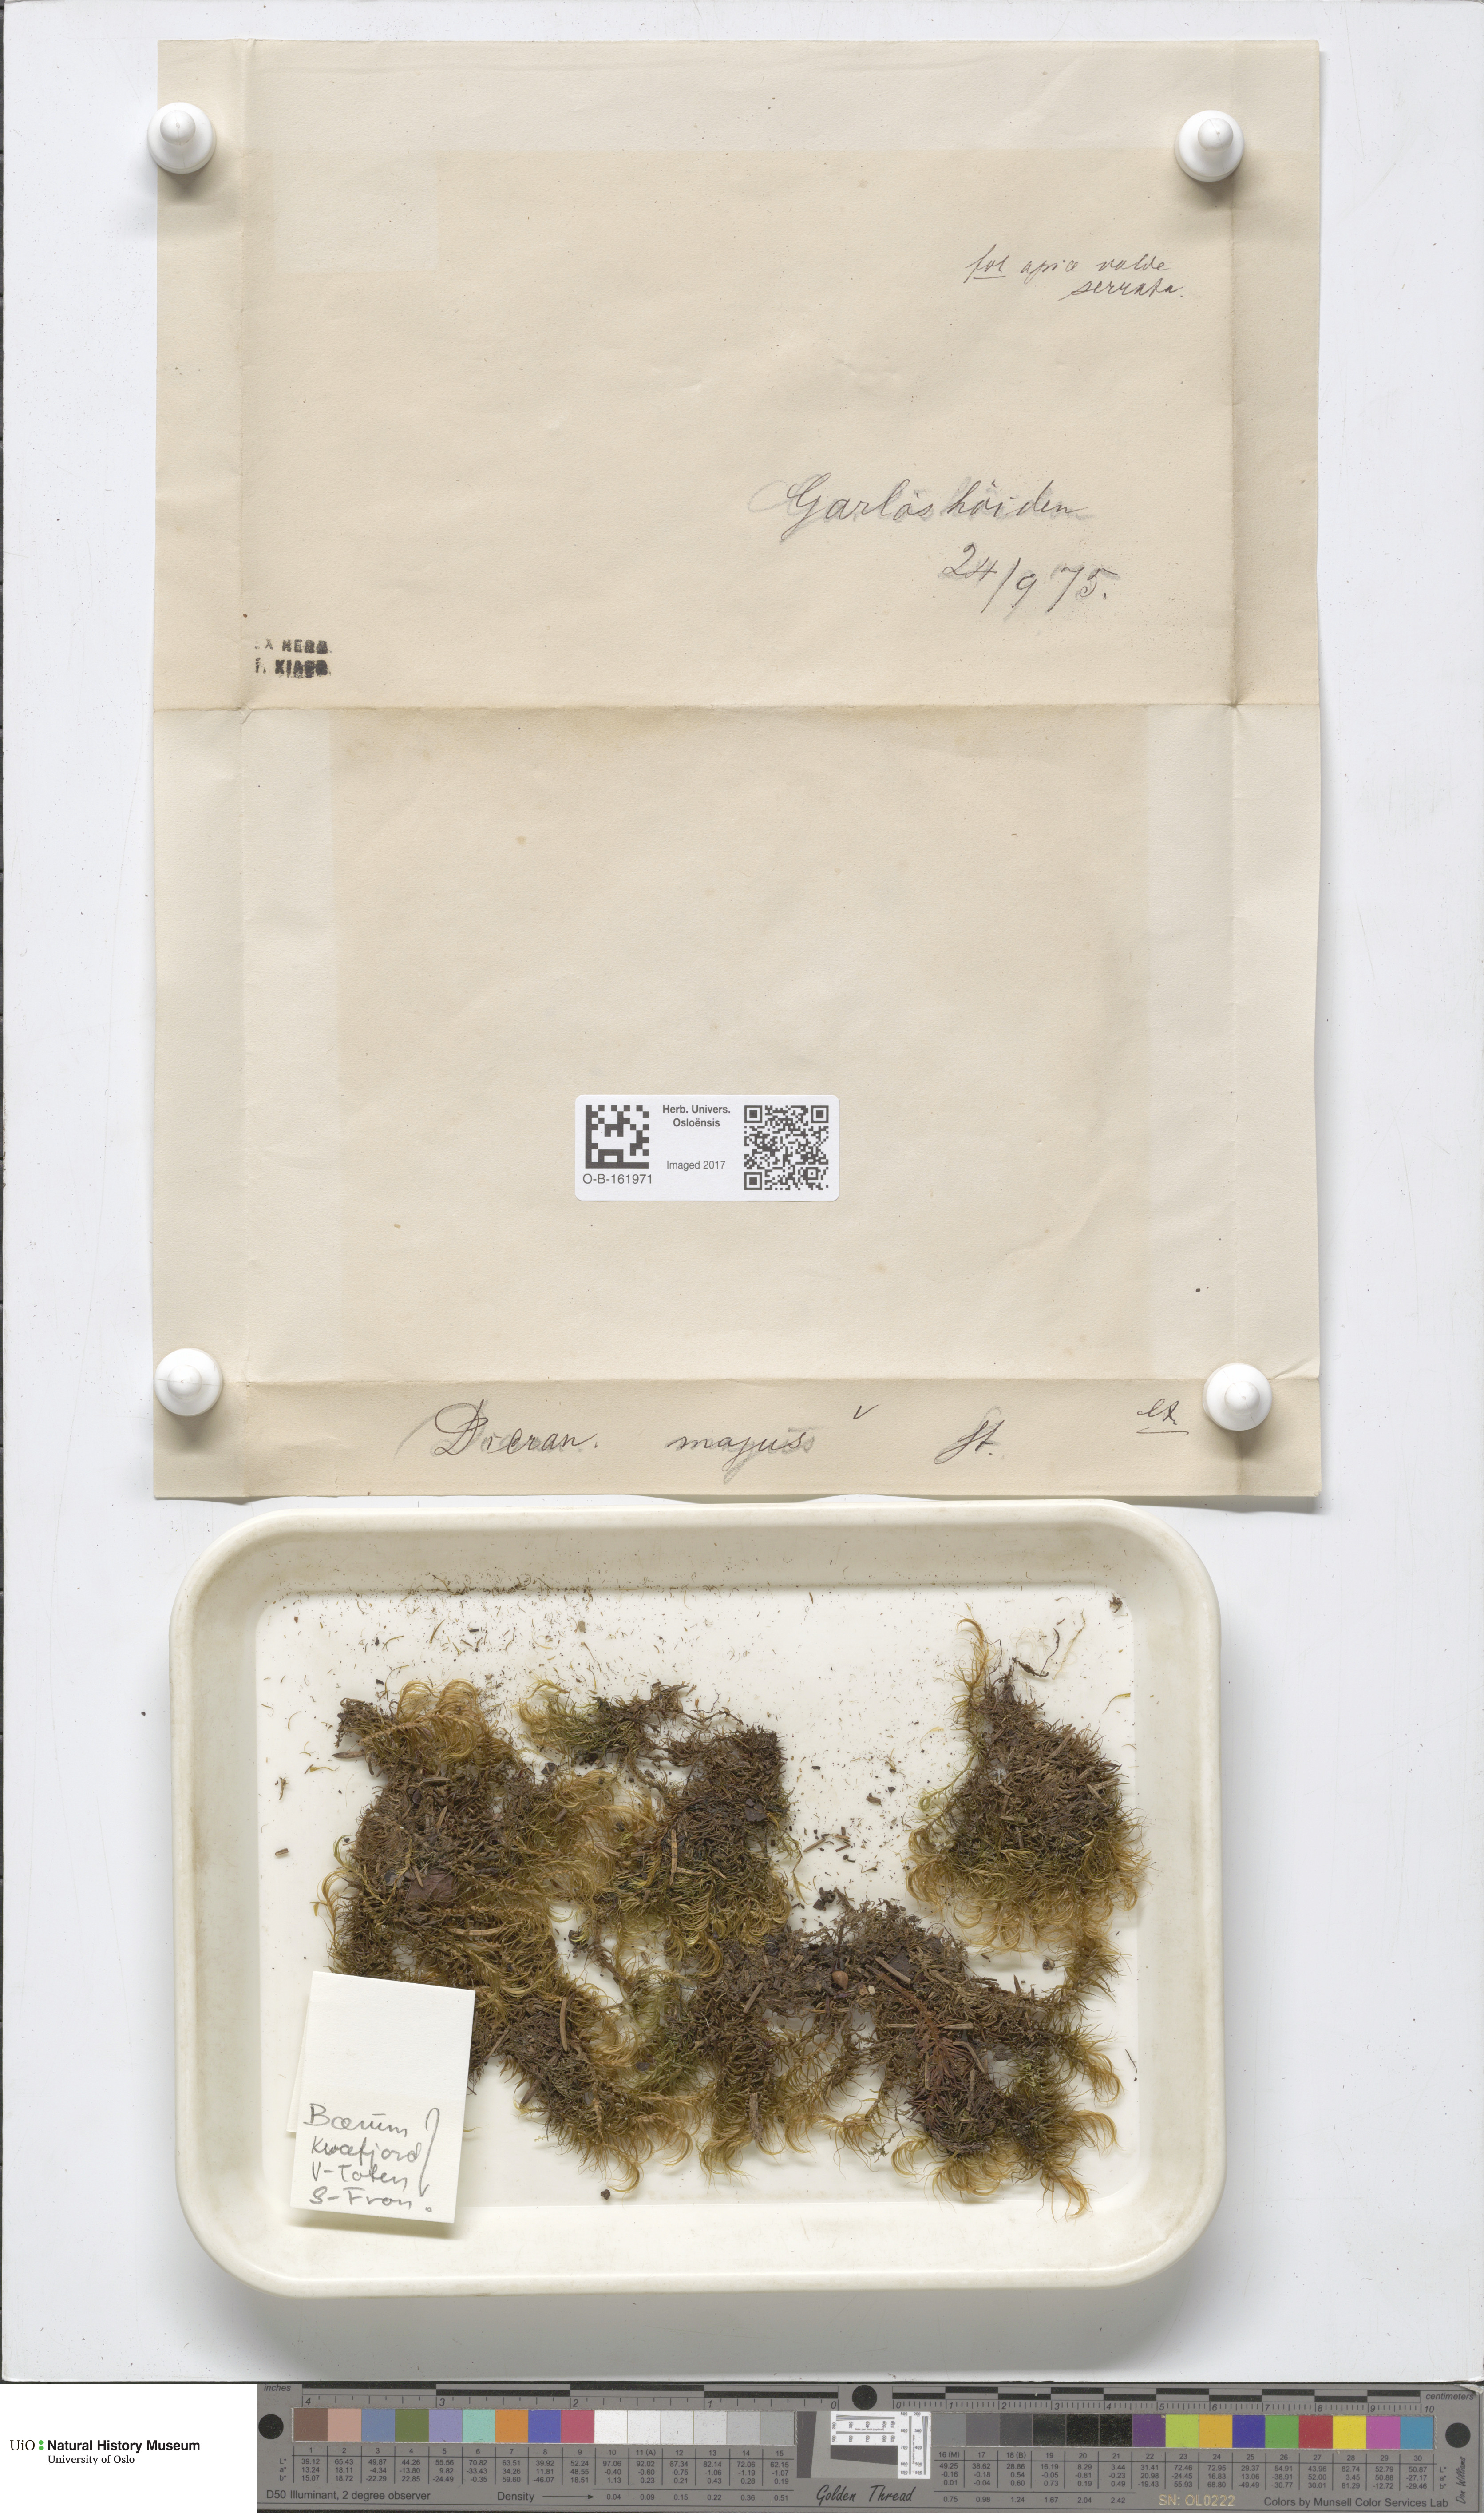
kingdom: Plantae
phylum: Bryophyta
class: Bryopsida
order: Dicranales
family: Dicranaceae
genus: Dicranum
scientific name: Dicranum majus
